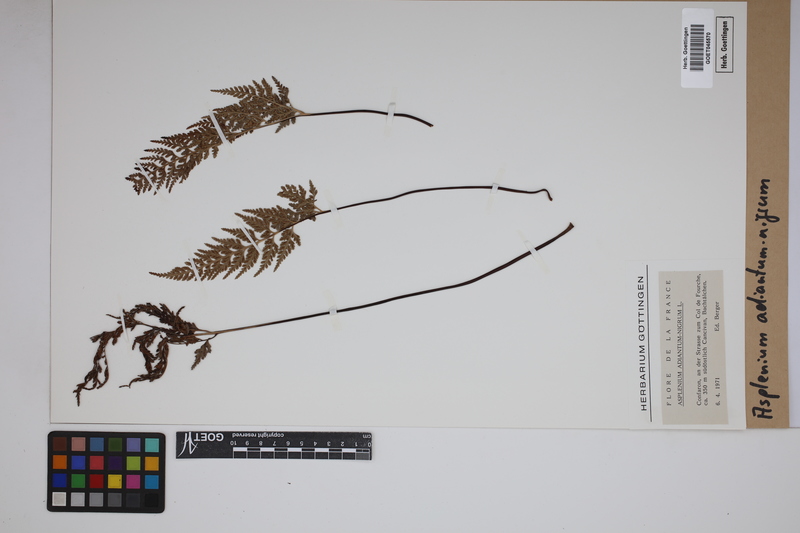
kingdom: Plantae
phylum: Tracheophyta
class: Polypodiopsida
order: Polypodiales
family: Aspleniaceae
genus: Asplenium
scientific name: Asplenium adiantum-nigrum
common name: Black spleenwort
